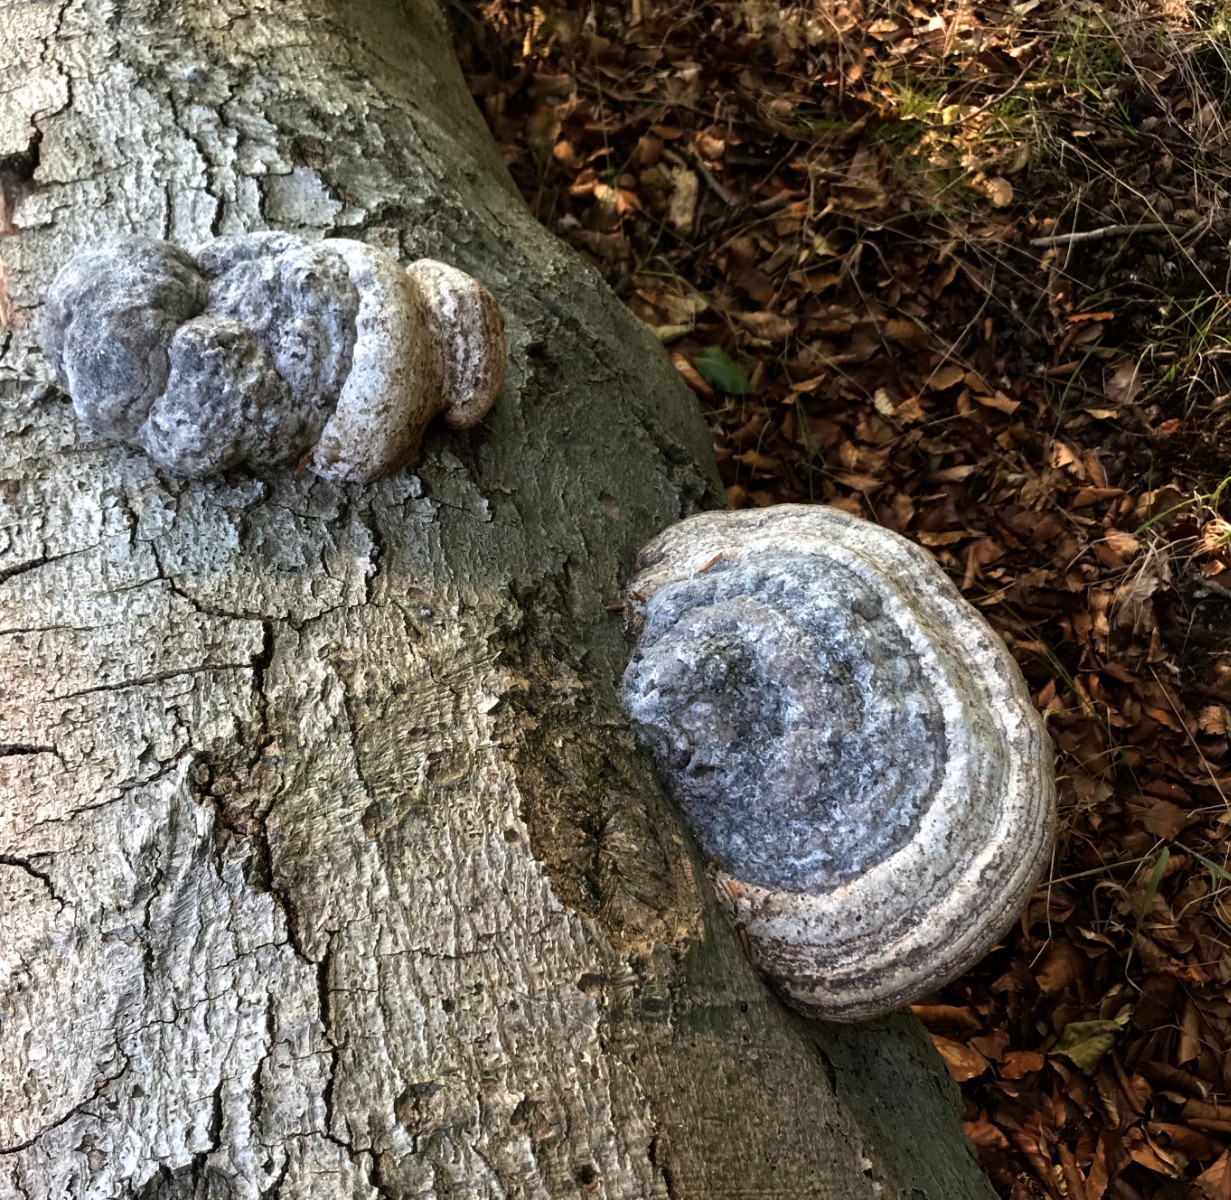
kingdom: Fungi
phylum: Basidiomycota
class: Agaricomycetes
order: Polyporales
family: Polyporaceae
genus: Fomes
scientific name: Fomes fomentarius
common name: tøndersvamp
